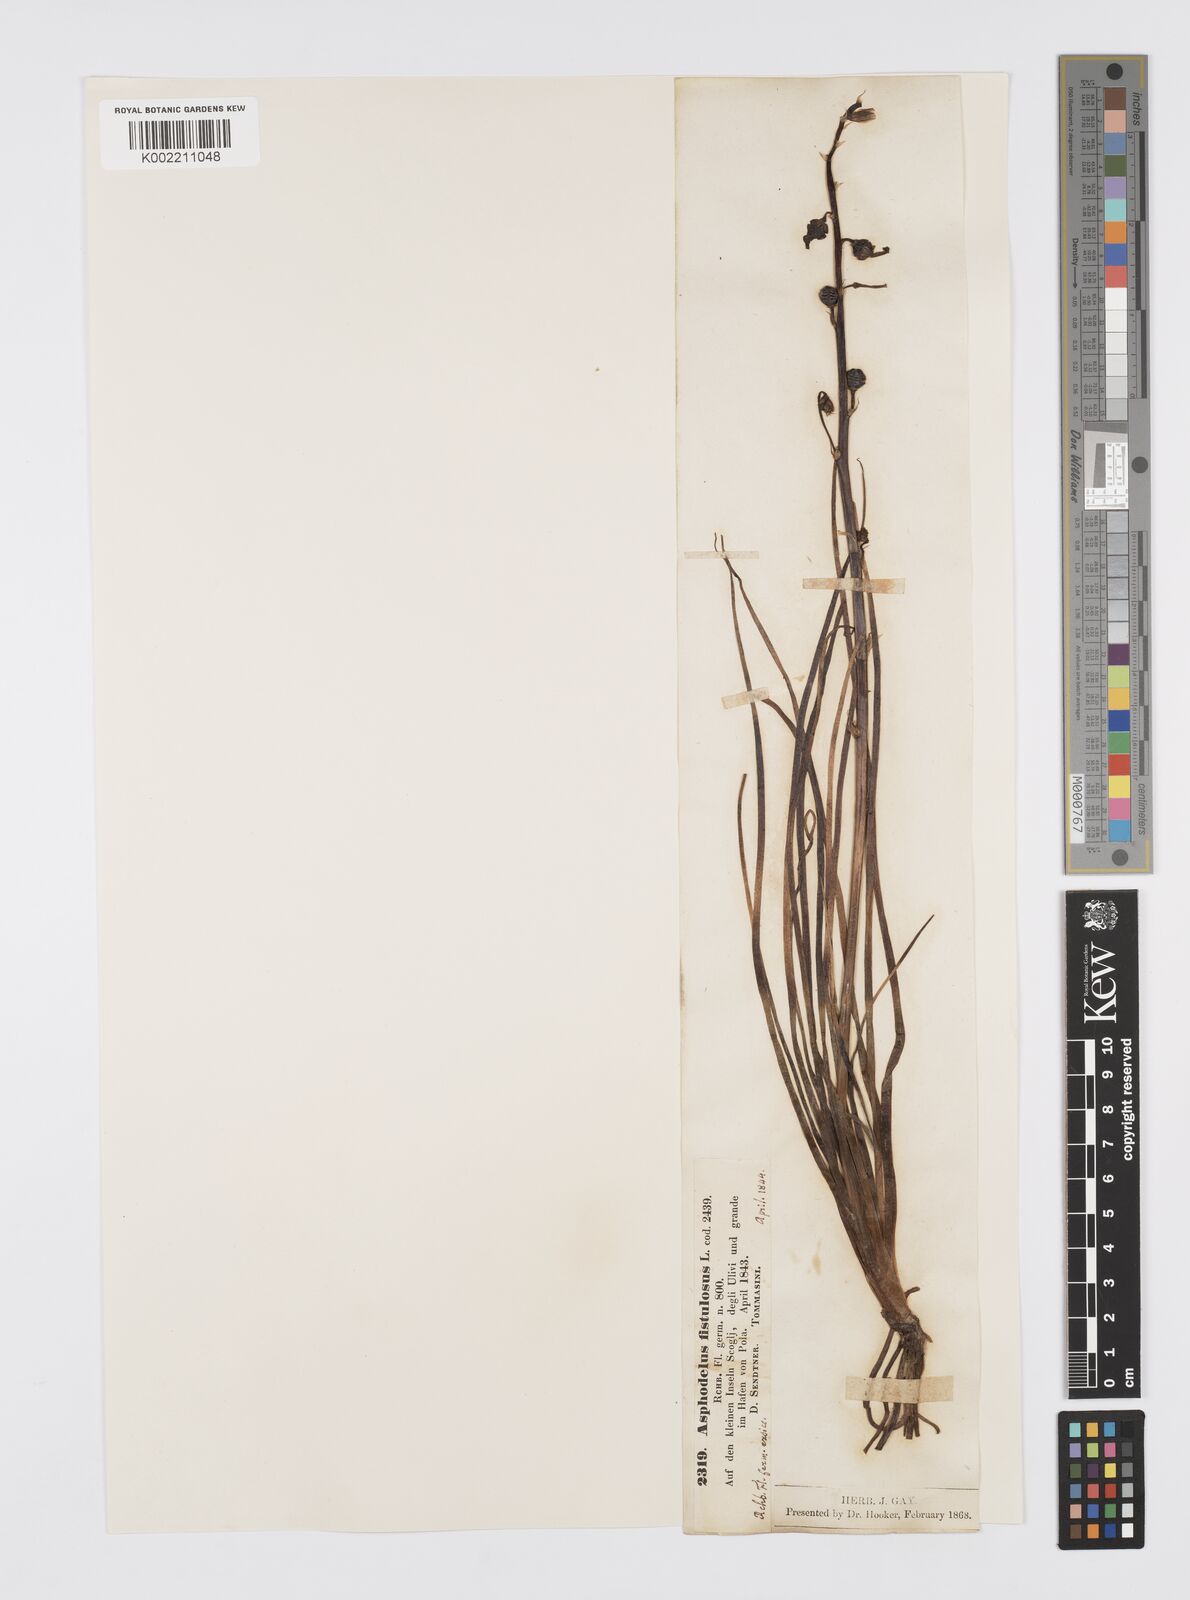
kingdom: Plantae
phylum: Tracheophyta
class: Liliopsida
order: Asparagales
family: Asphodelaceae
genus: Asphodelus
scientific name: Asphodelus fistulosus
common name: Onionweed
